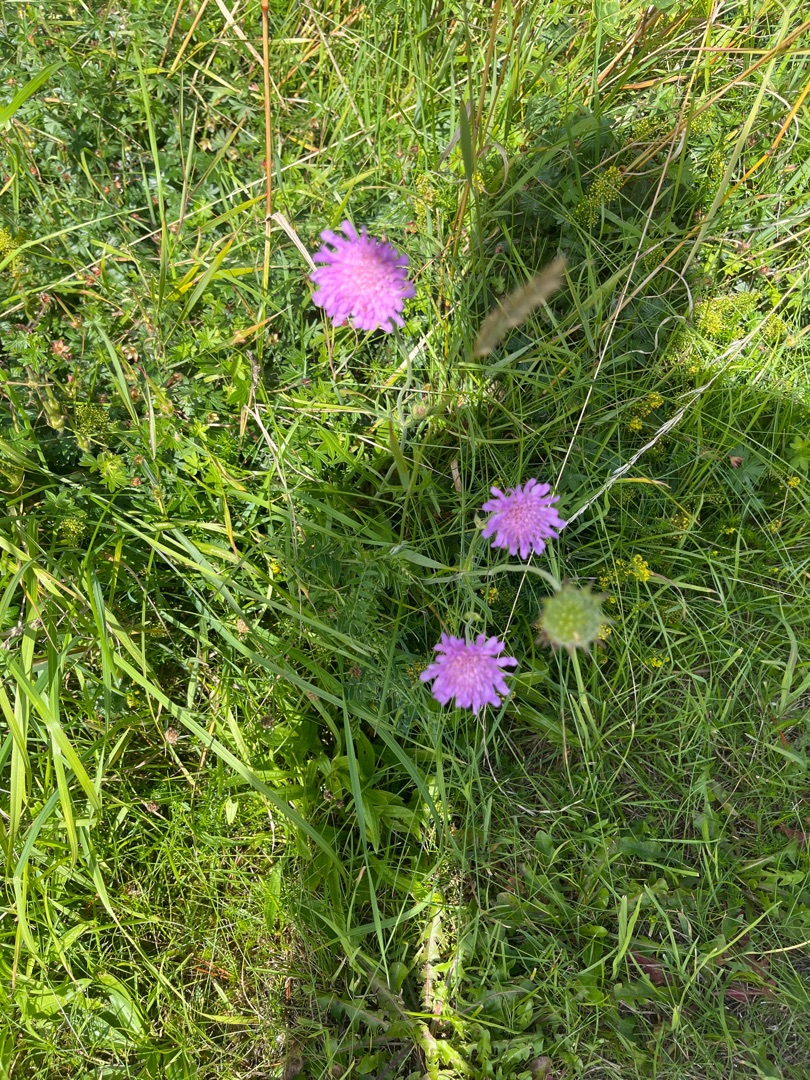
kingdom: Plantae
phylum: Tracheophyta
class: Magnoliopsida
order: Dipsacales
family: Caprifoliaceae
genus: Knautia
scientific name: Knautia arvensis
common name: Blåhat
